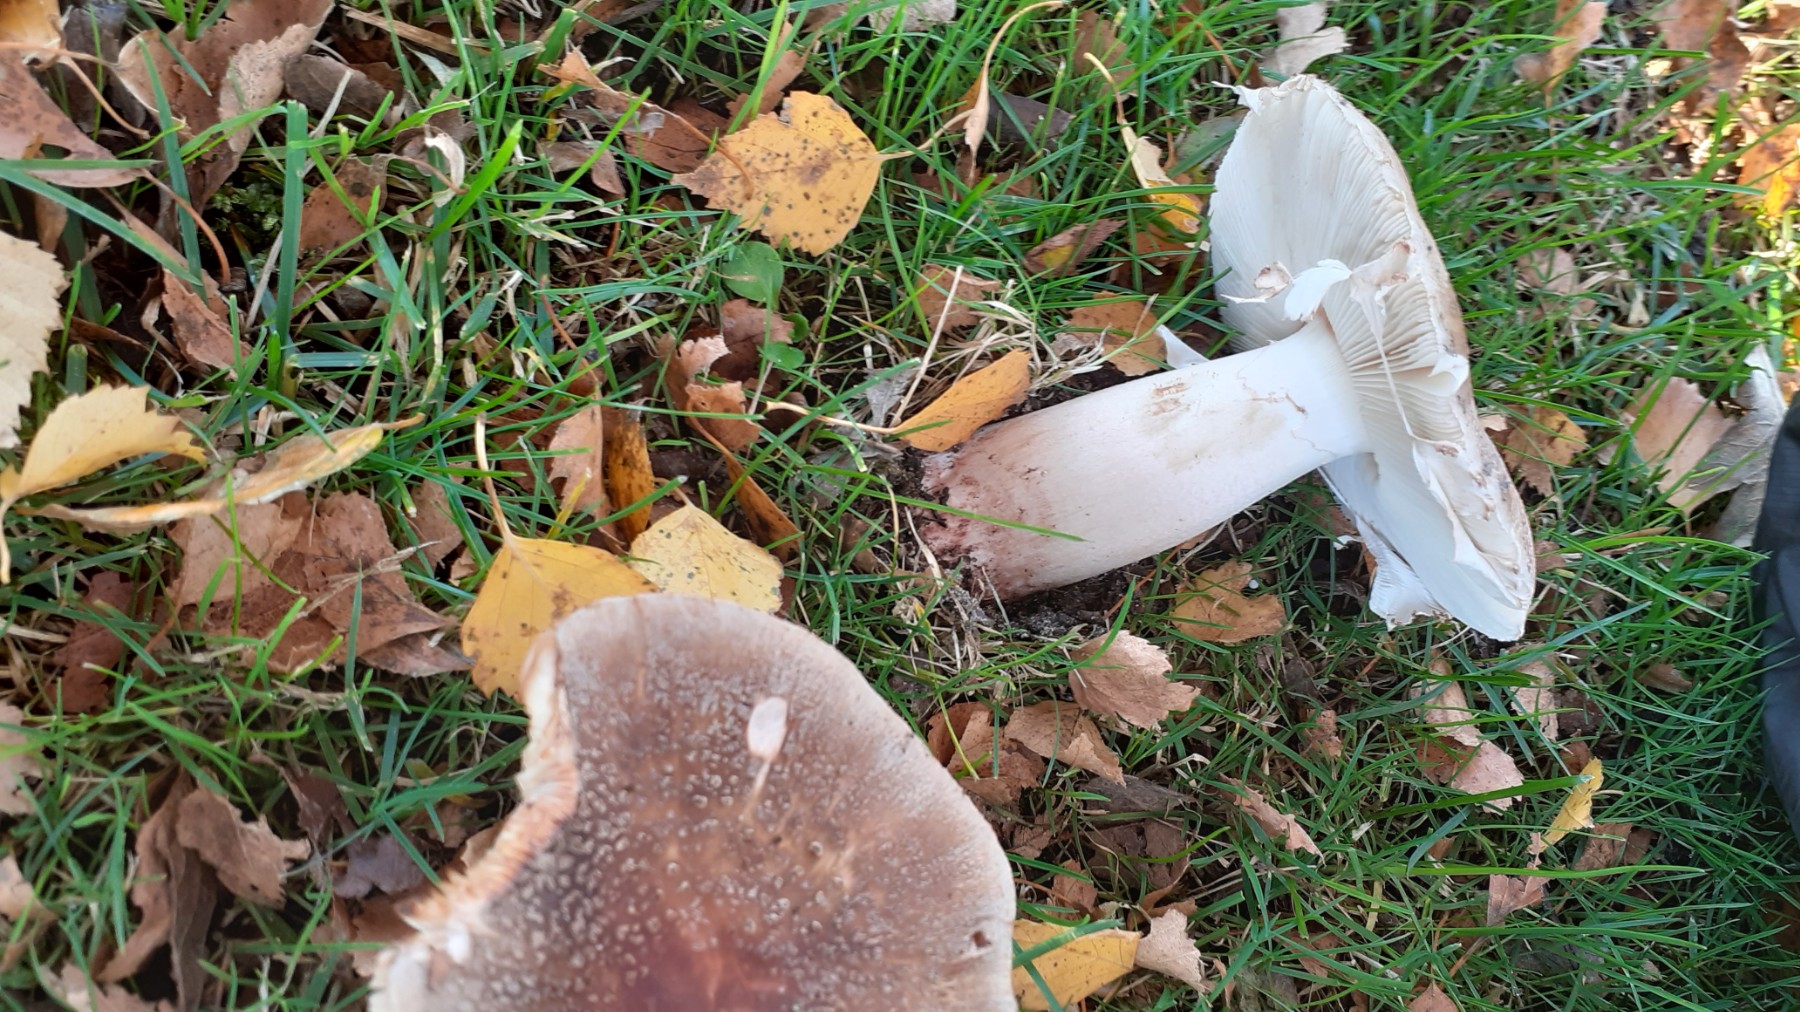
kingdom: Fungi
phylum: Basidiomycota
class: Agaricomycetes
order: Agaricales
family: Amanitaceae
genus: Amanita
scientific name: Amanita pantherina
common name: panter-fluesvamp
